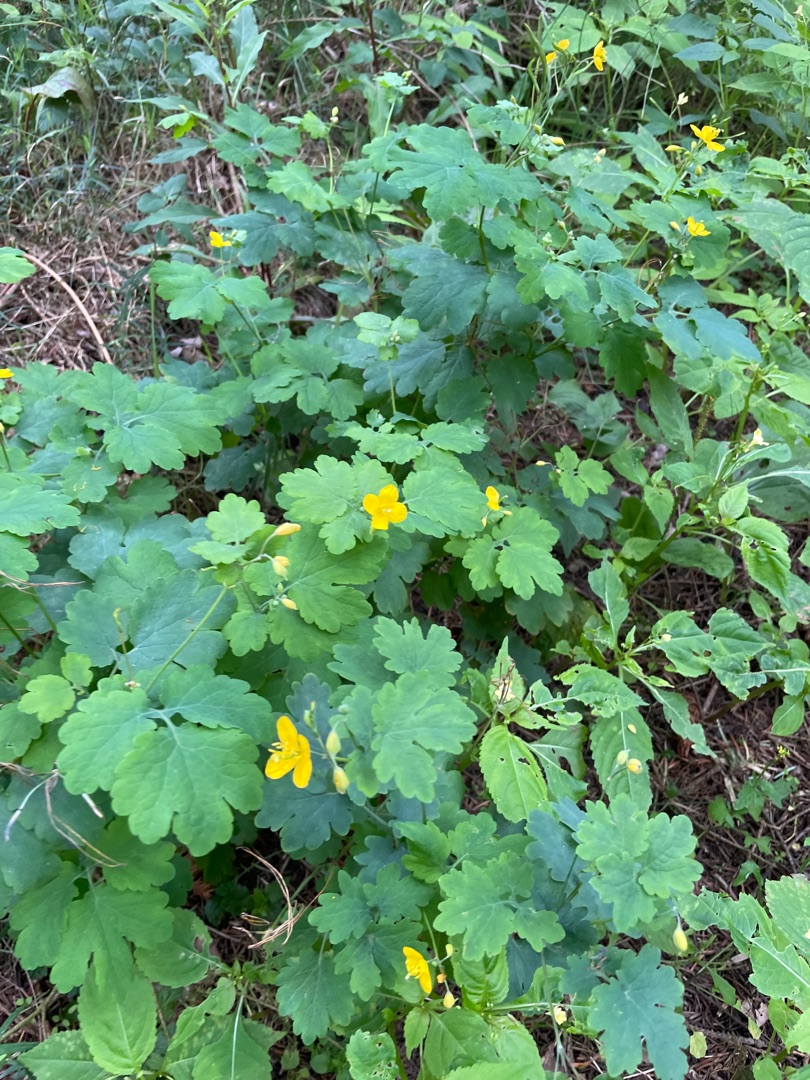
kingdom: Plantae
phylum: Tracheophyta
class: Magnoliopsida
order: Ranunculales
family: Papaveraceae
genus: Chelidonium
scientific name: Chelidonium majus
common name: Svaleurt
